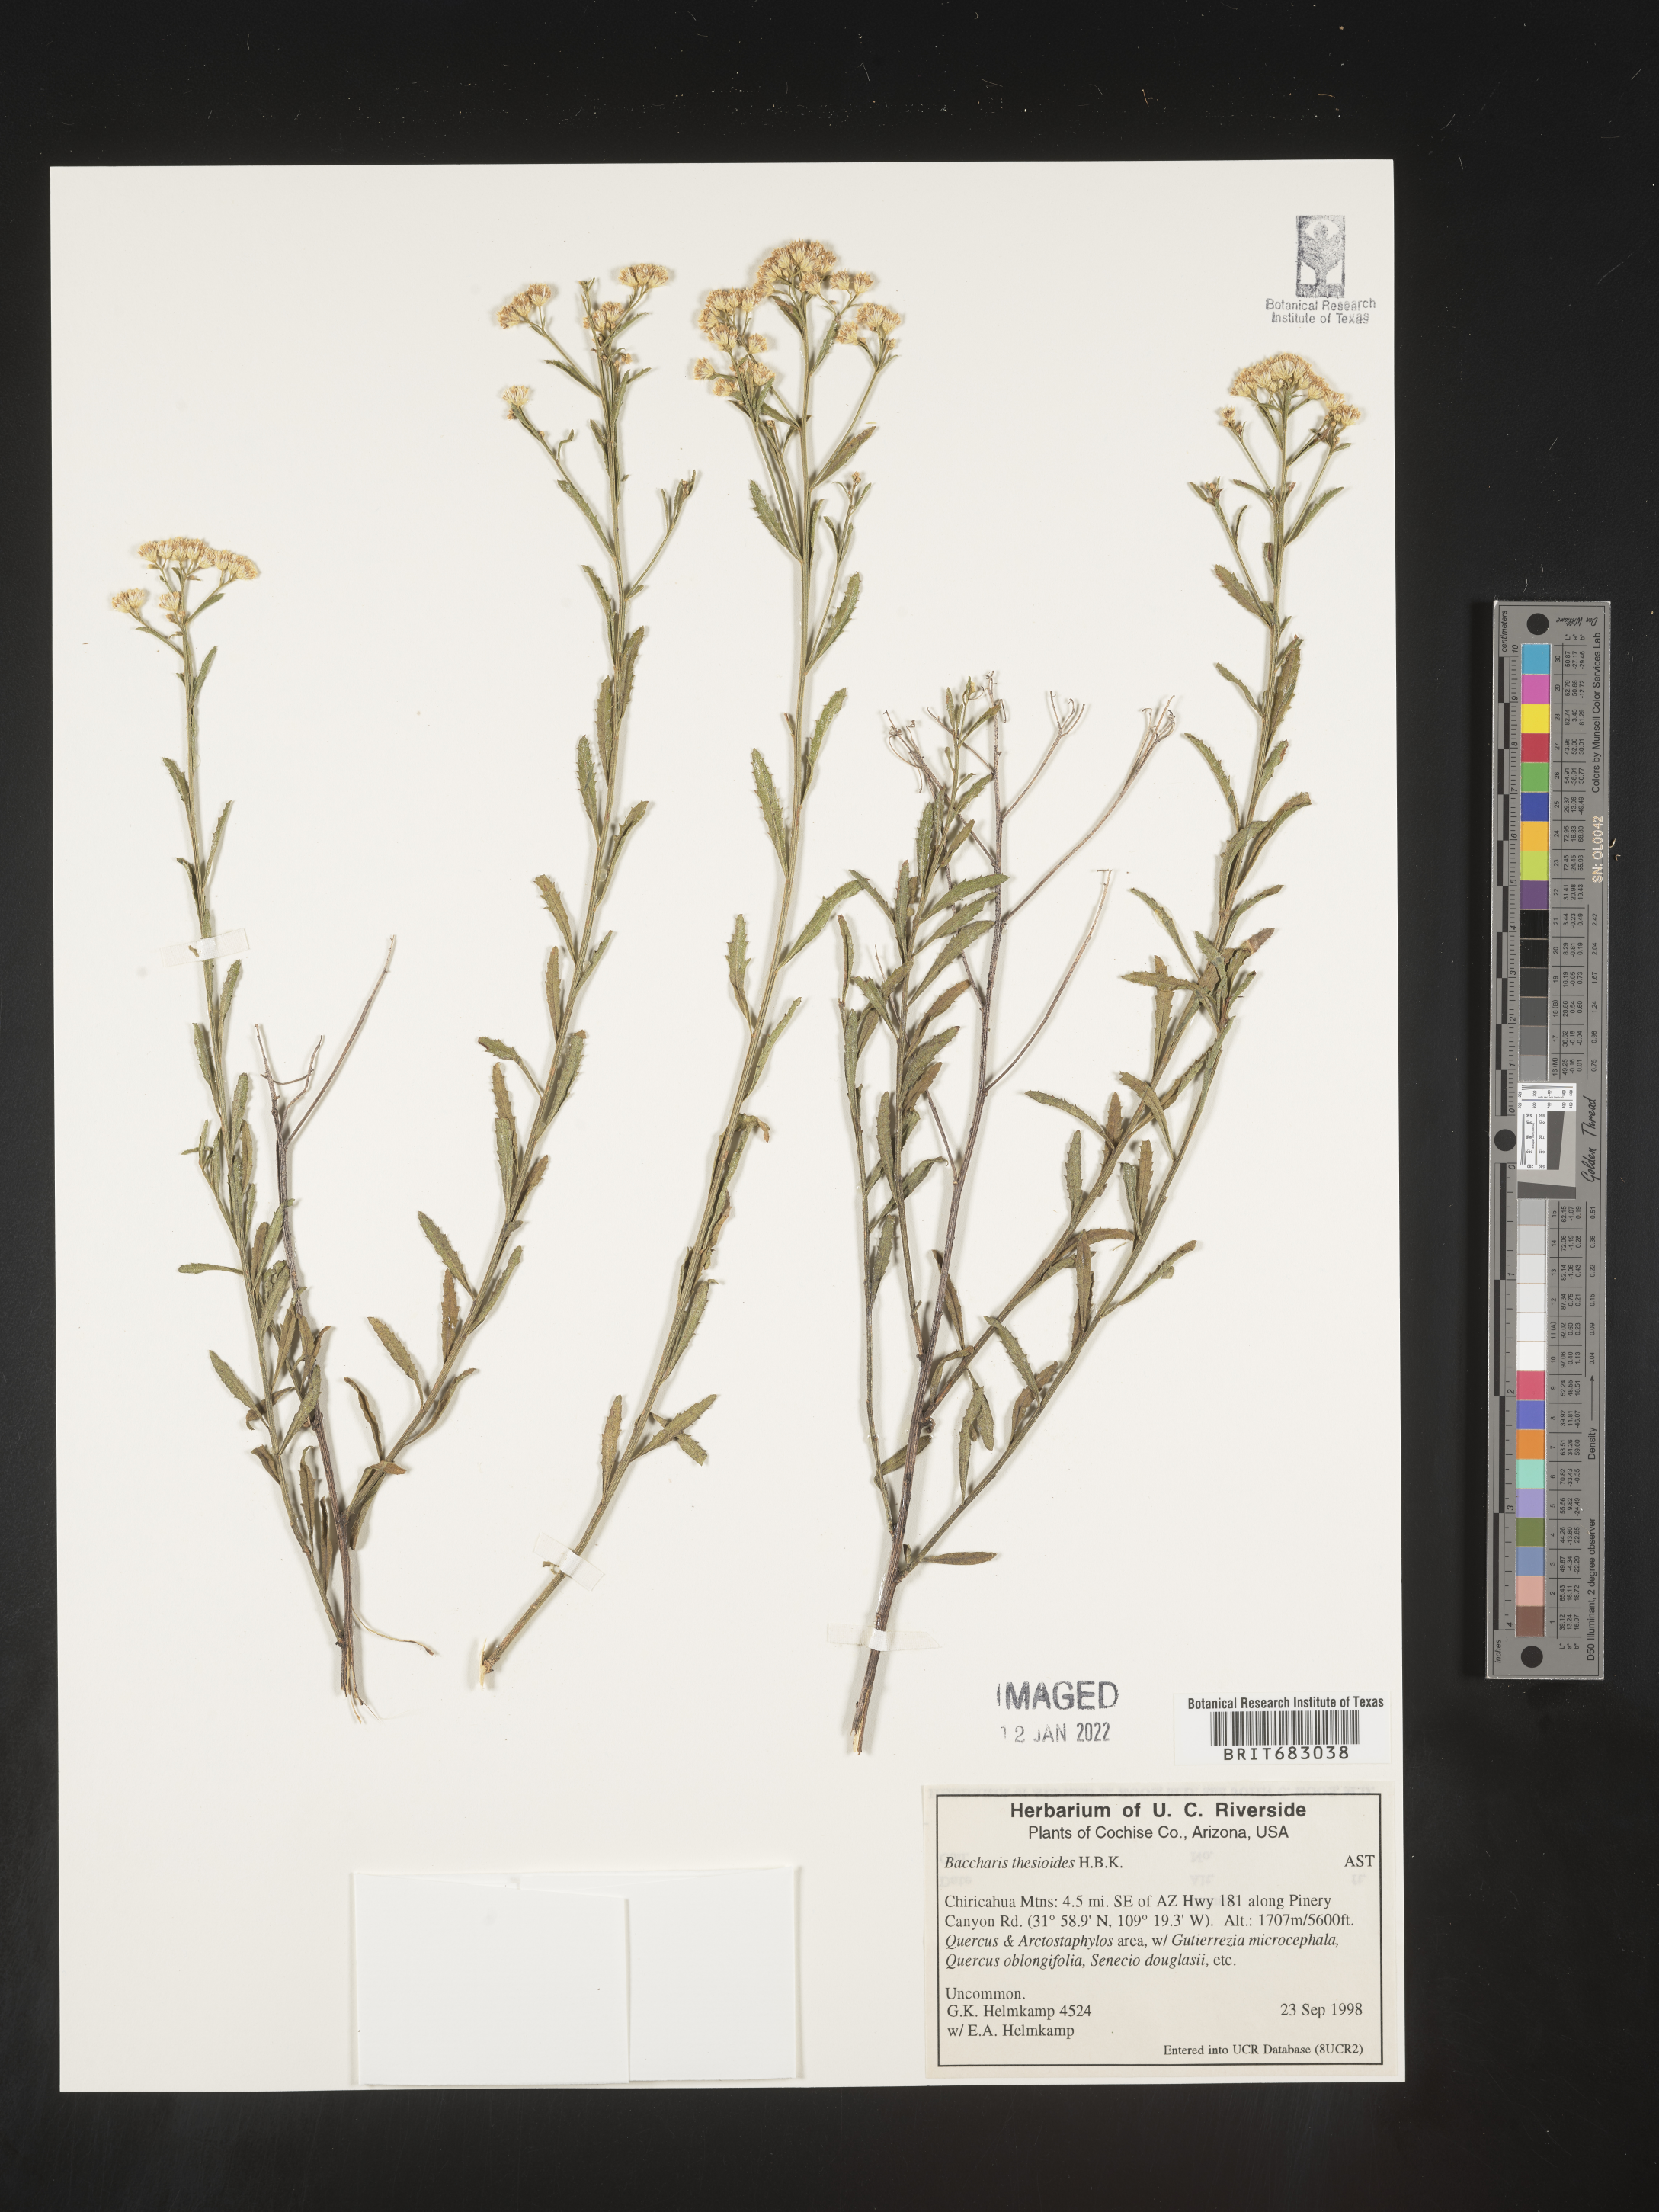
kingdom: Plantae
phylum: Tracheophyta
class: Magnoliopsida
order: Asterales
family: Asteraceae
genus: Baccharis
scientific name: Baccharis thesioides
